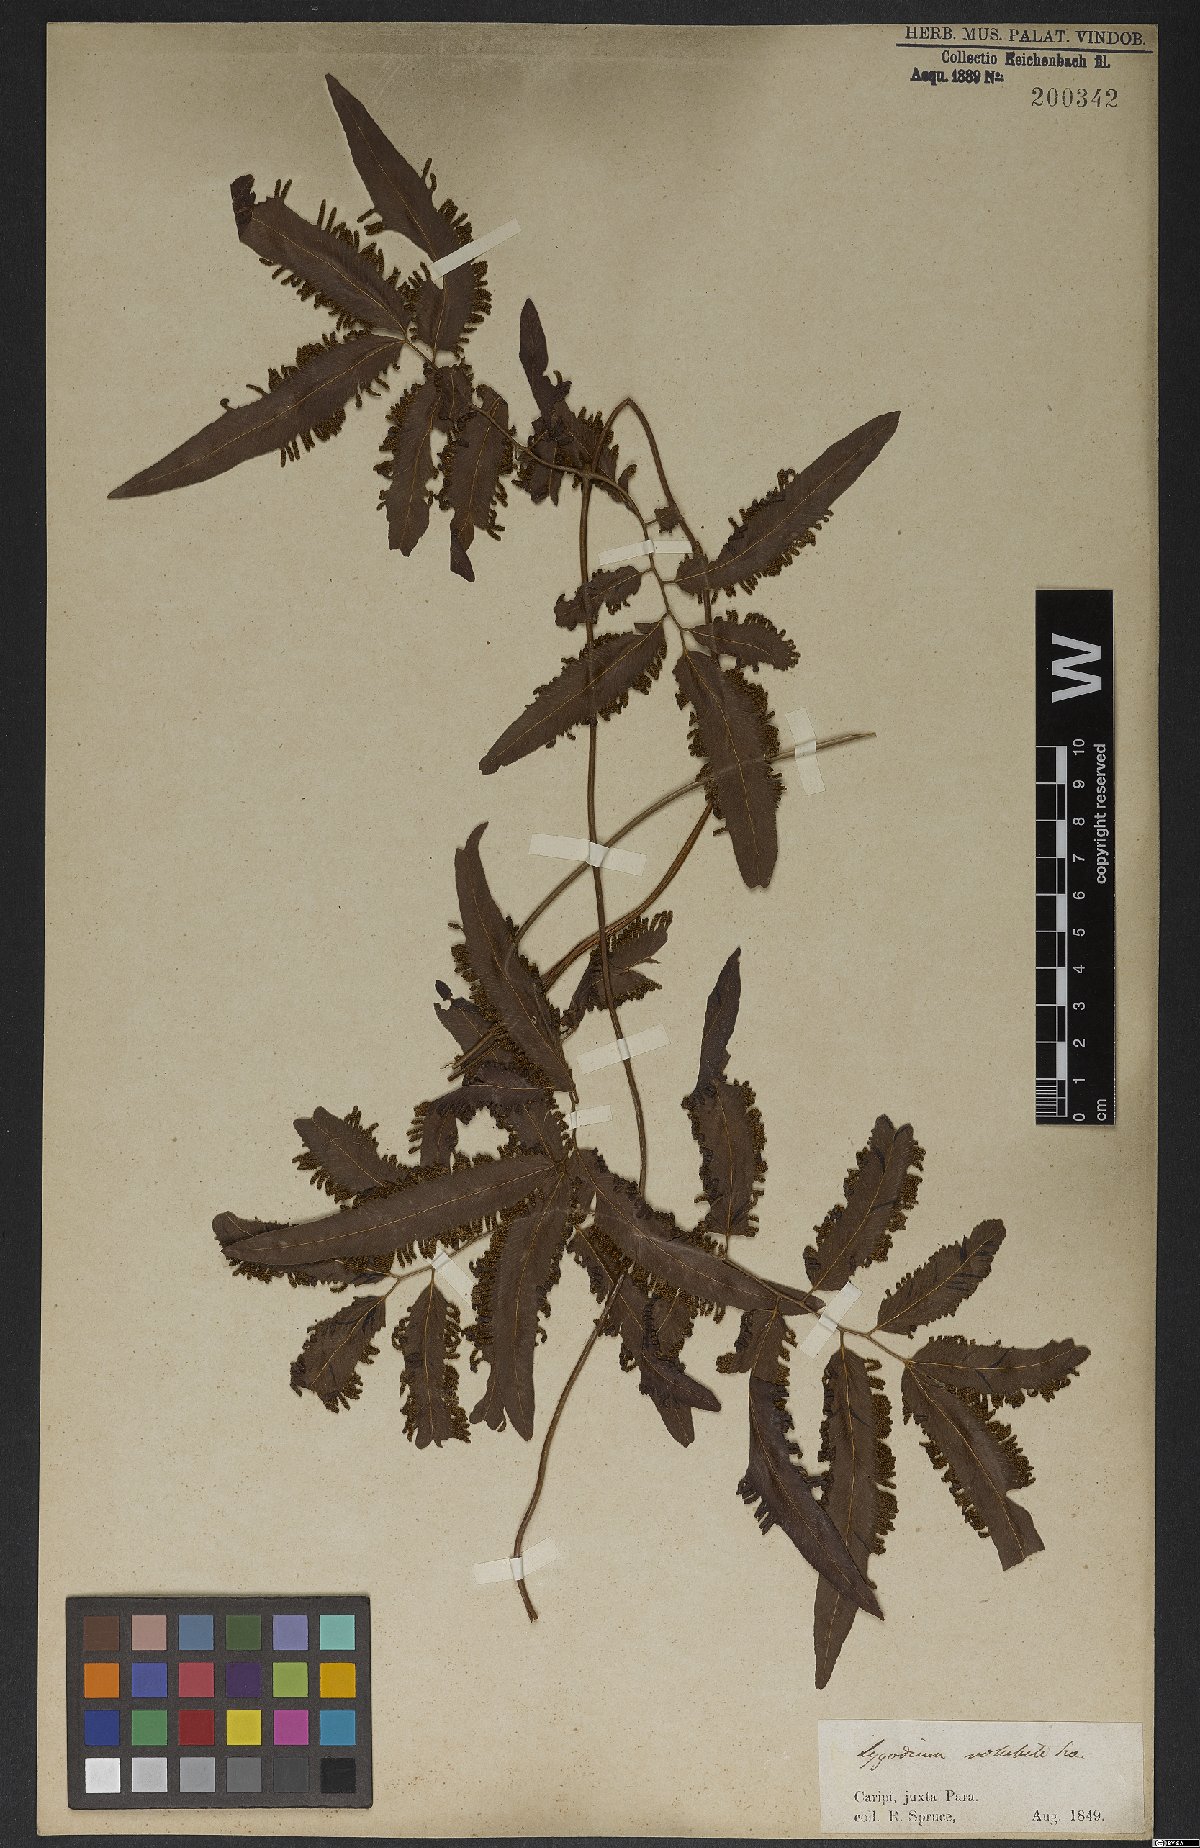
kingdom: Plantae
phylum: Tracheophyta
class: Polypodiopsida
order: Schizaeales
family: Lygodiaceae
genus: Lygodium
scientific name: Lygodium volubile
